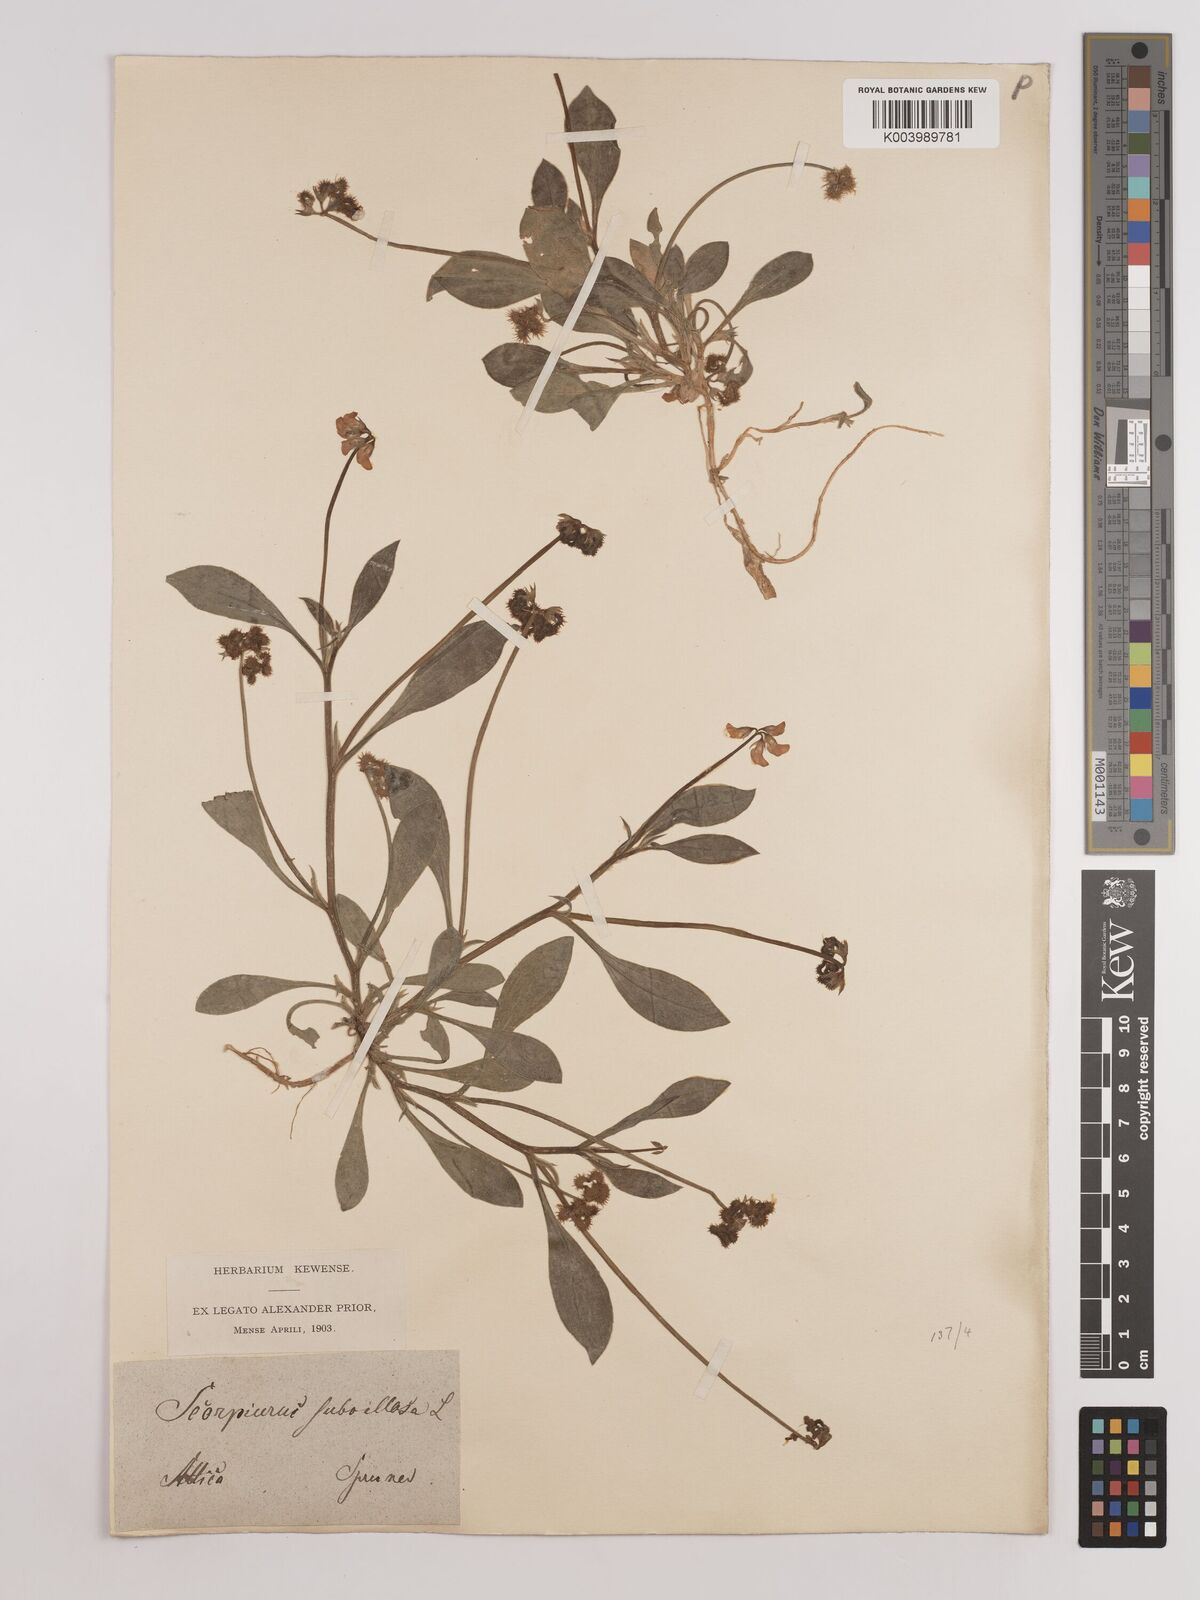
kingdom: Plantae
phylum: Tracheophyta
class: Magnoliopsida
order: Fabales
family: Fabaceae
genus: Scorpiurus
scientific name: Scorpiurus muricatus
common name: Caterpillar-plant
